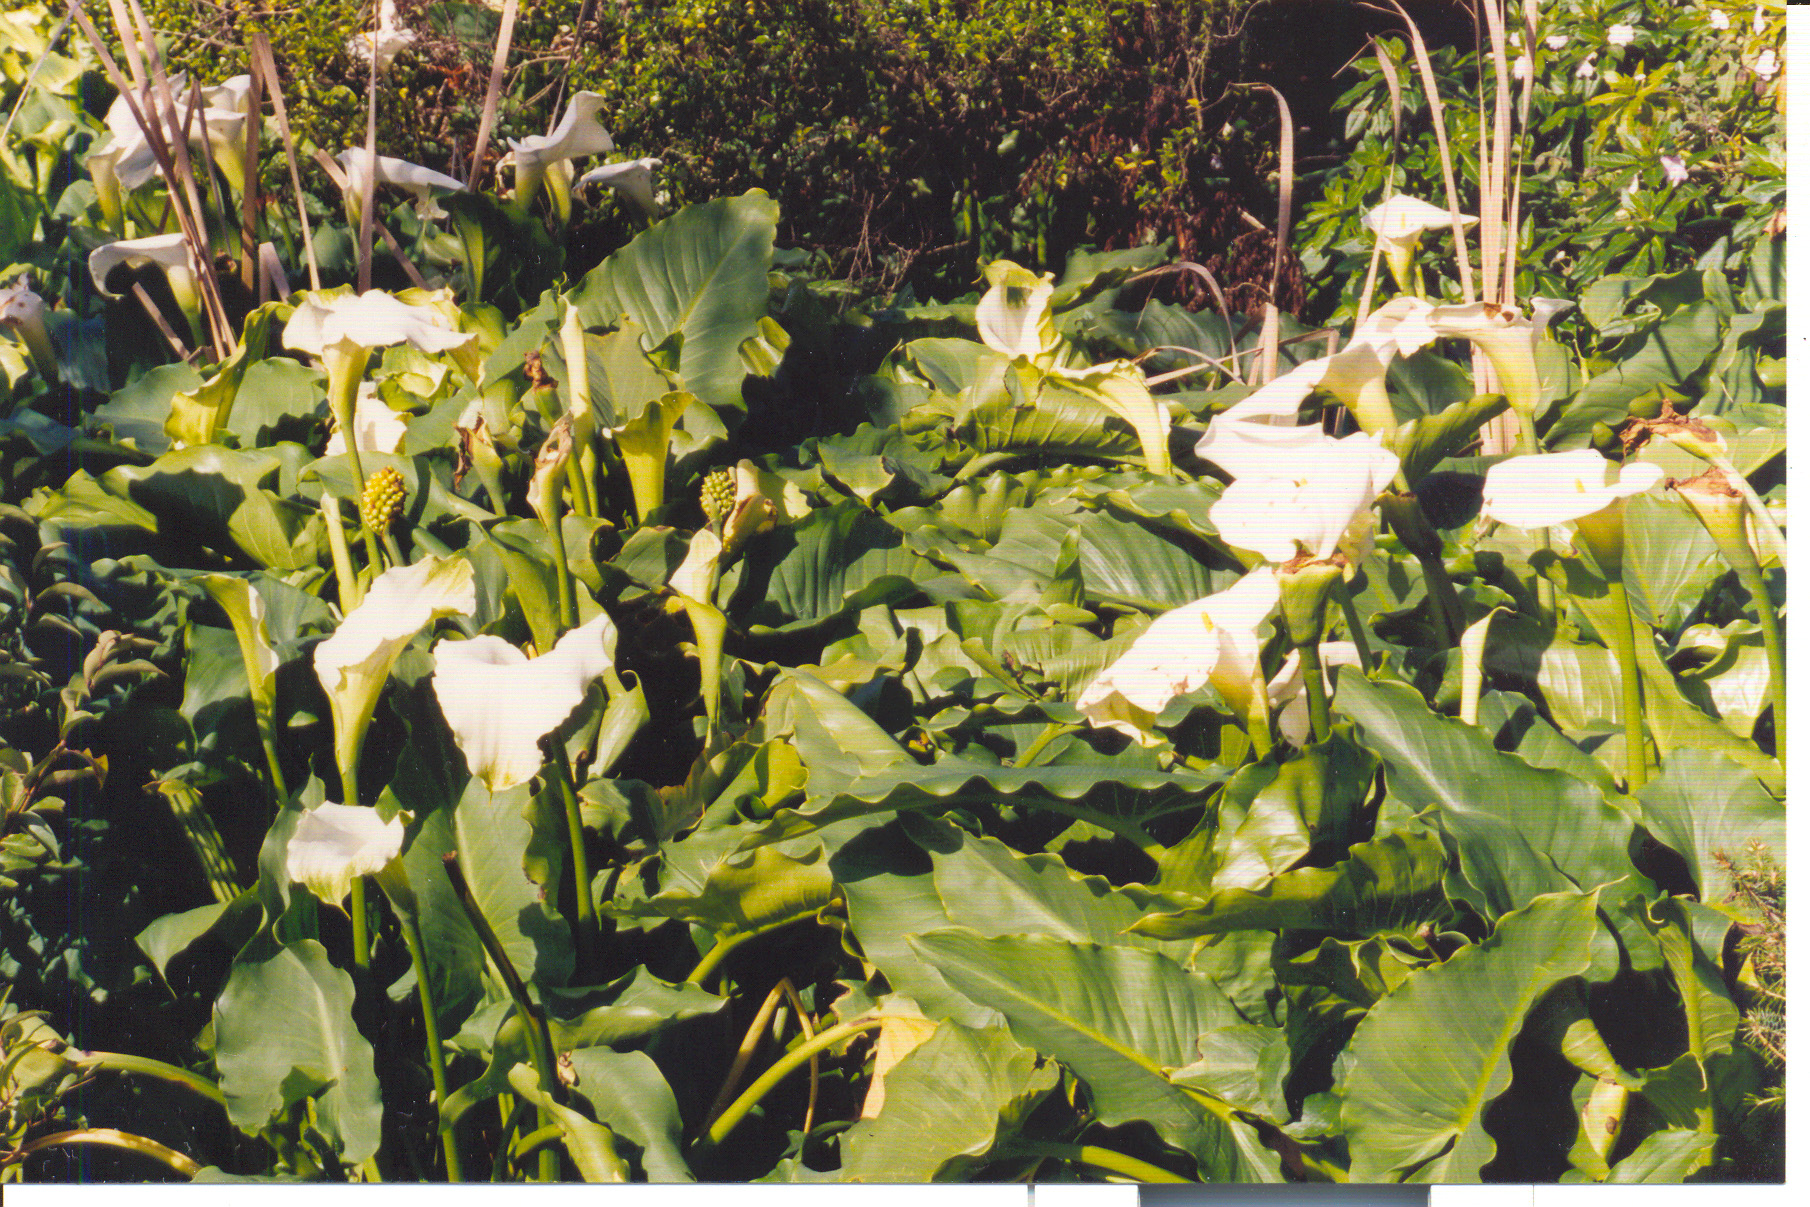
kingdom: Plantae
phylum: Tracheophyta
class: Liliopsida
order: Alismatales
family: Araceae
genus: Zantedeschia
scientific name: Zantedeschia aethiopica
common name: Altar-lily
